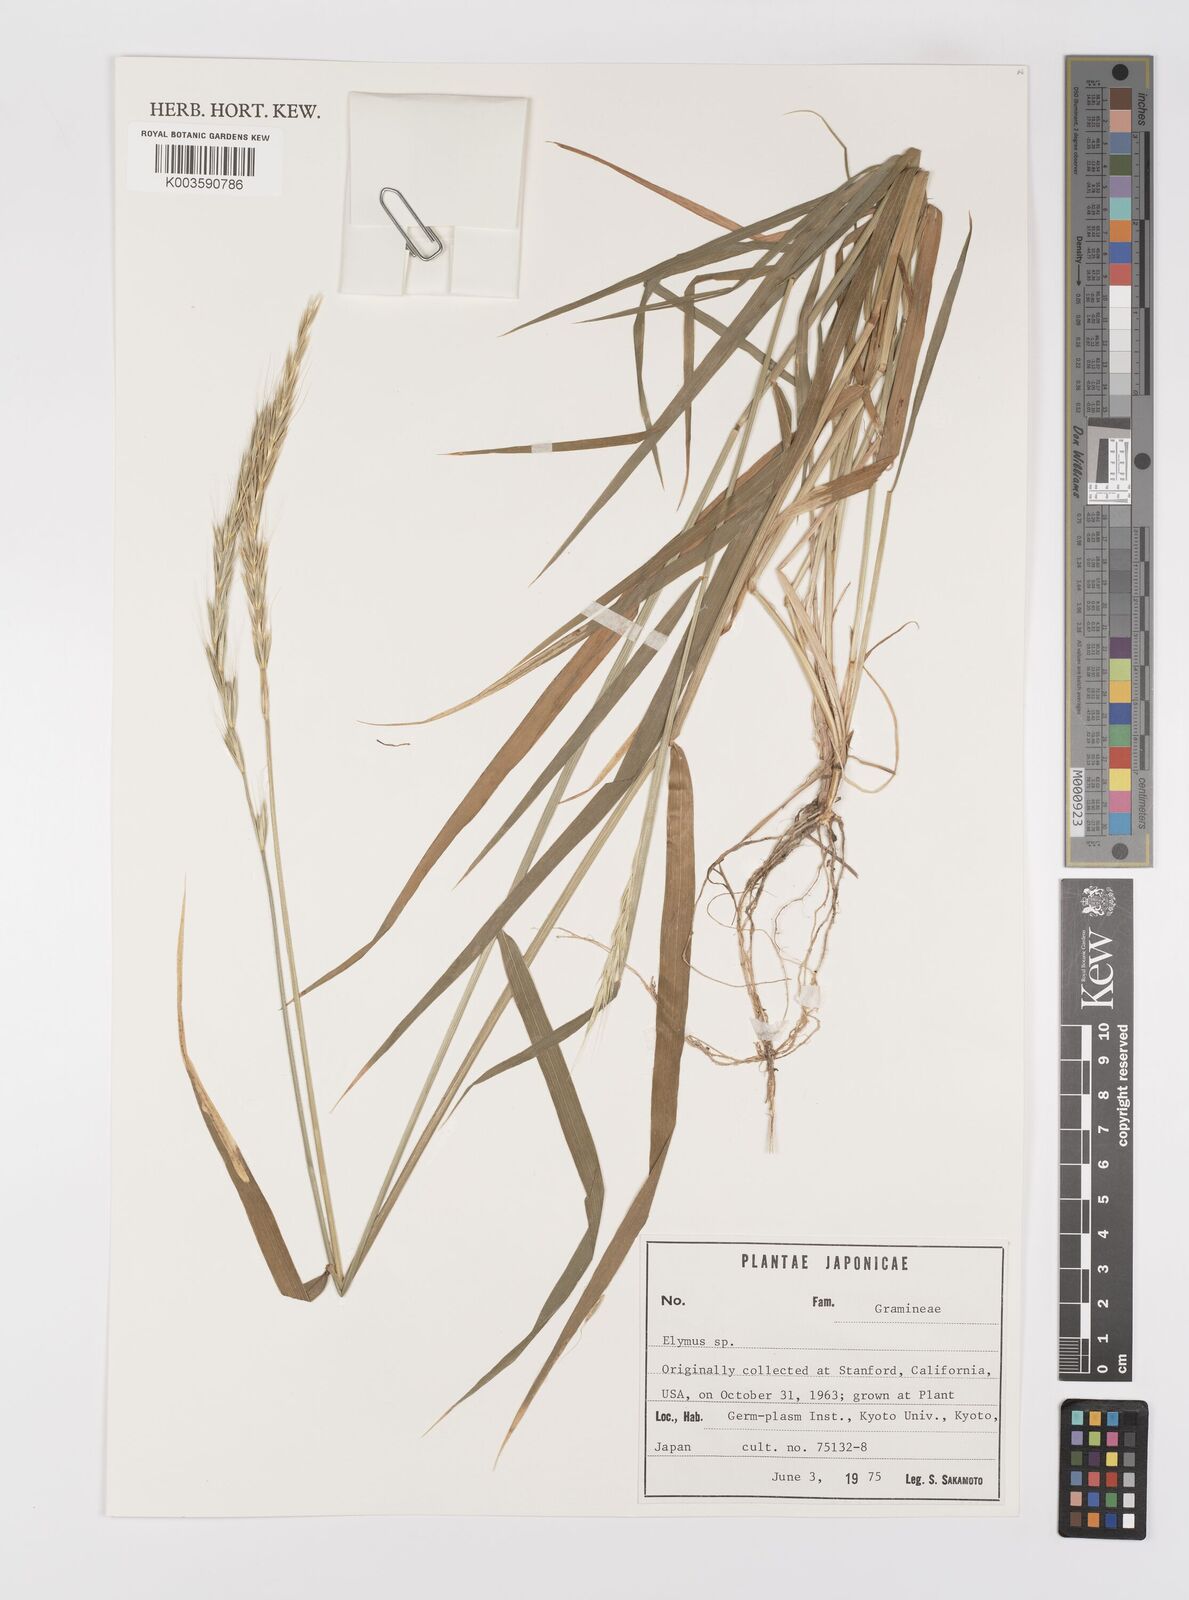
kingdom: Plantae
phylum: Tracheophyta
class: Liliopsida
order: Poales
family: Poaceae
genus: Elymus
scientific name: Elymus
